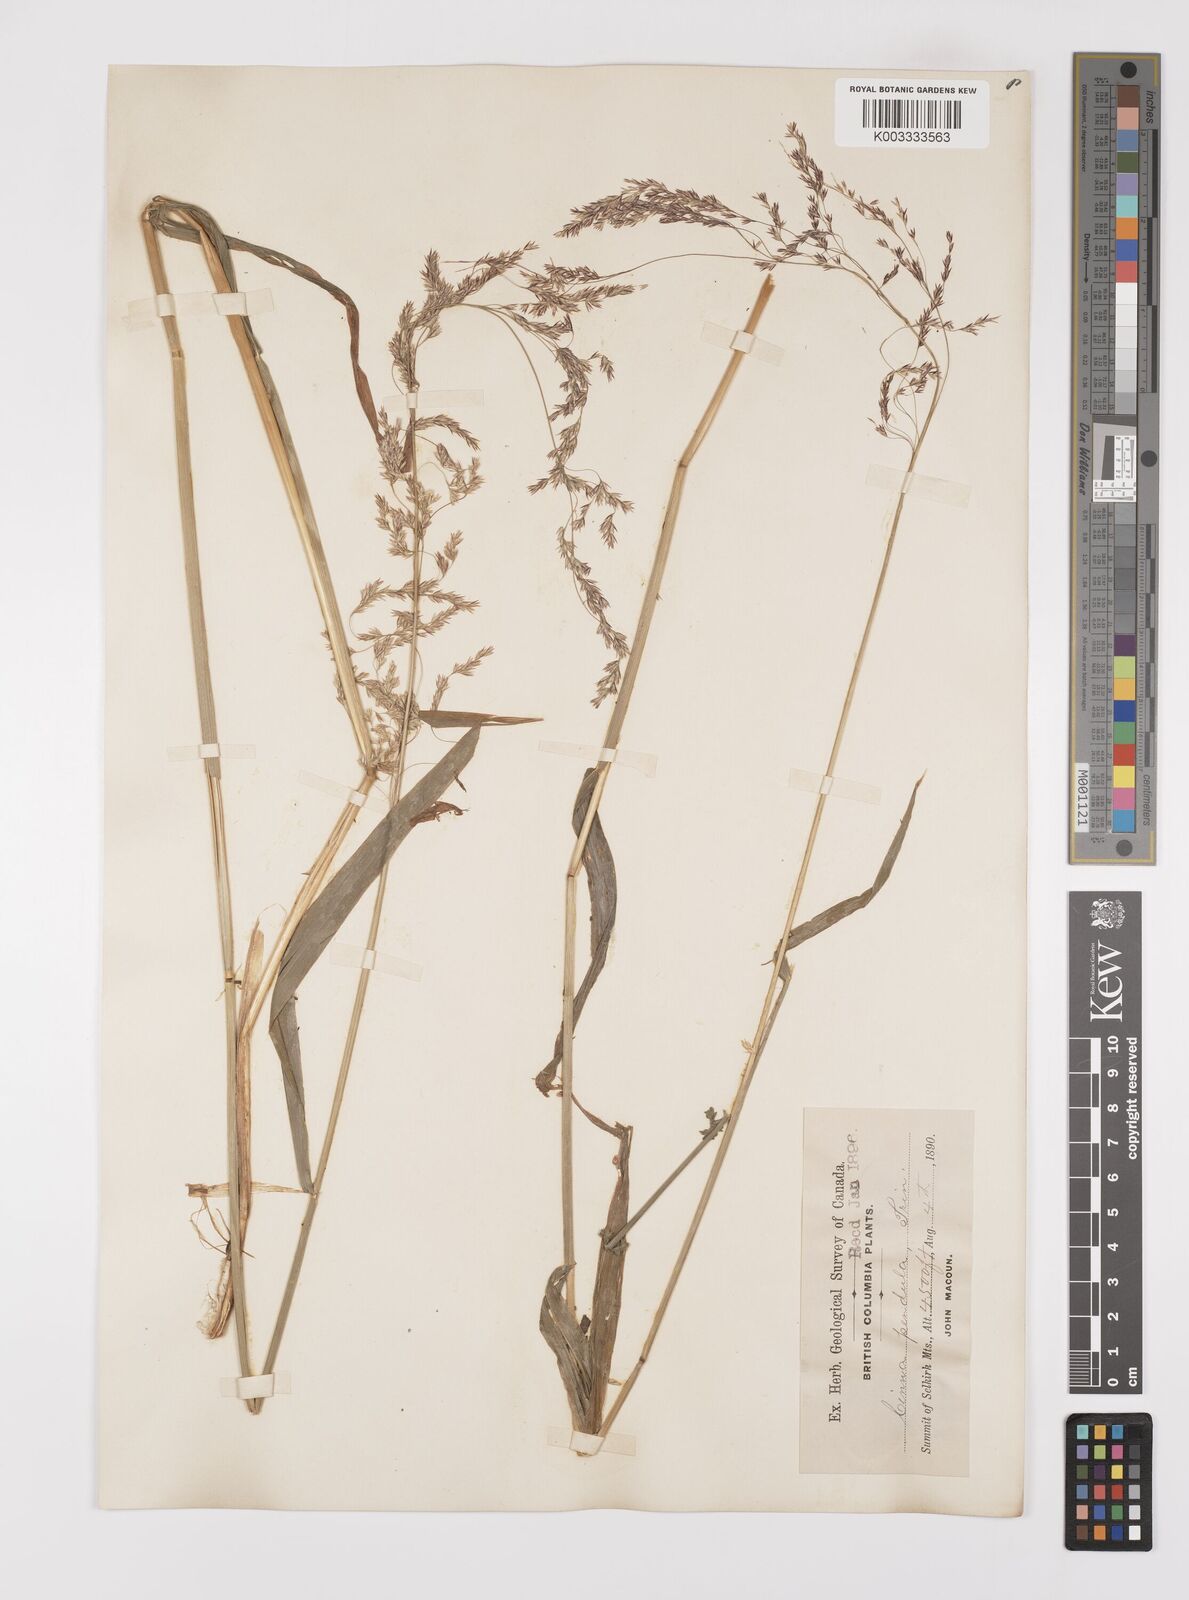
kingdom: Plantae
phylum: Tracheophyta
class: Liliopsida
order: Poales
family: Poaceae
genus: Cinna
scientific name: Cinna latifolia
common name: Drooping woodreed
